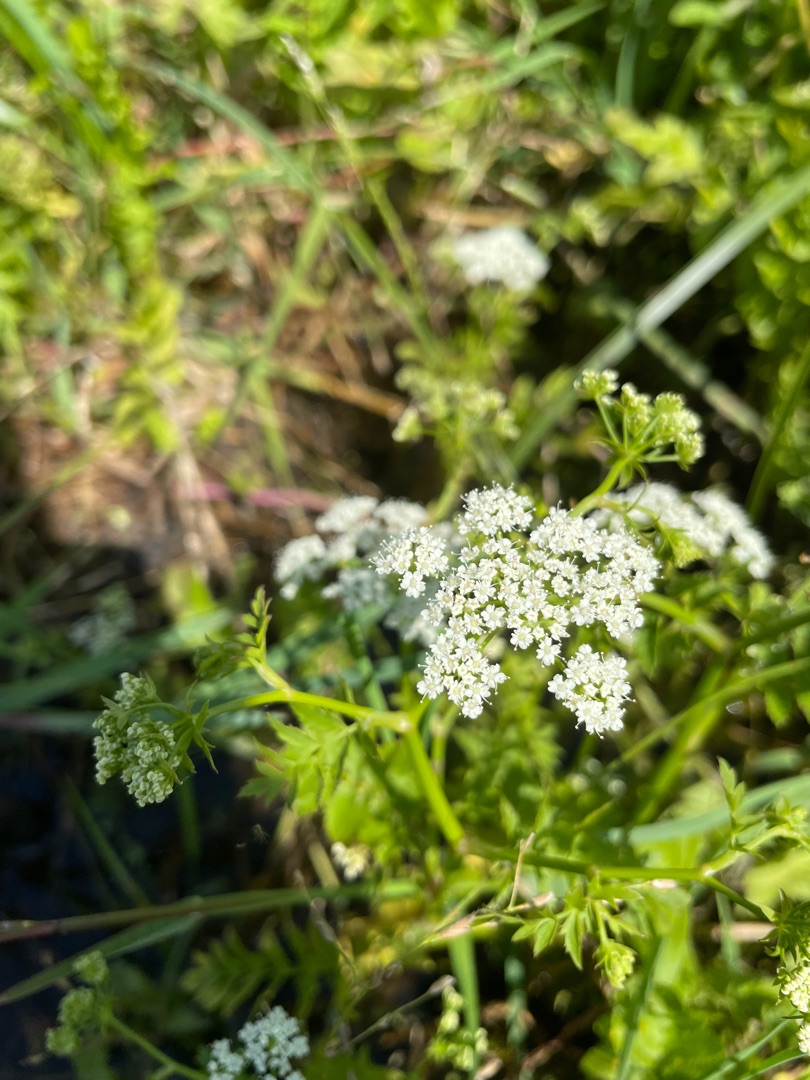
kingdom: Plantae
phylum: Tracheophyta
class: Magnoliopsida
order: Apiales
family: Apiaceae
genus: Berula
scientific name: Berula erecta
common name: Sideskærm
